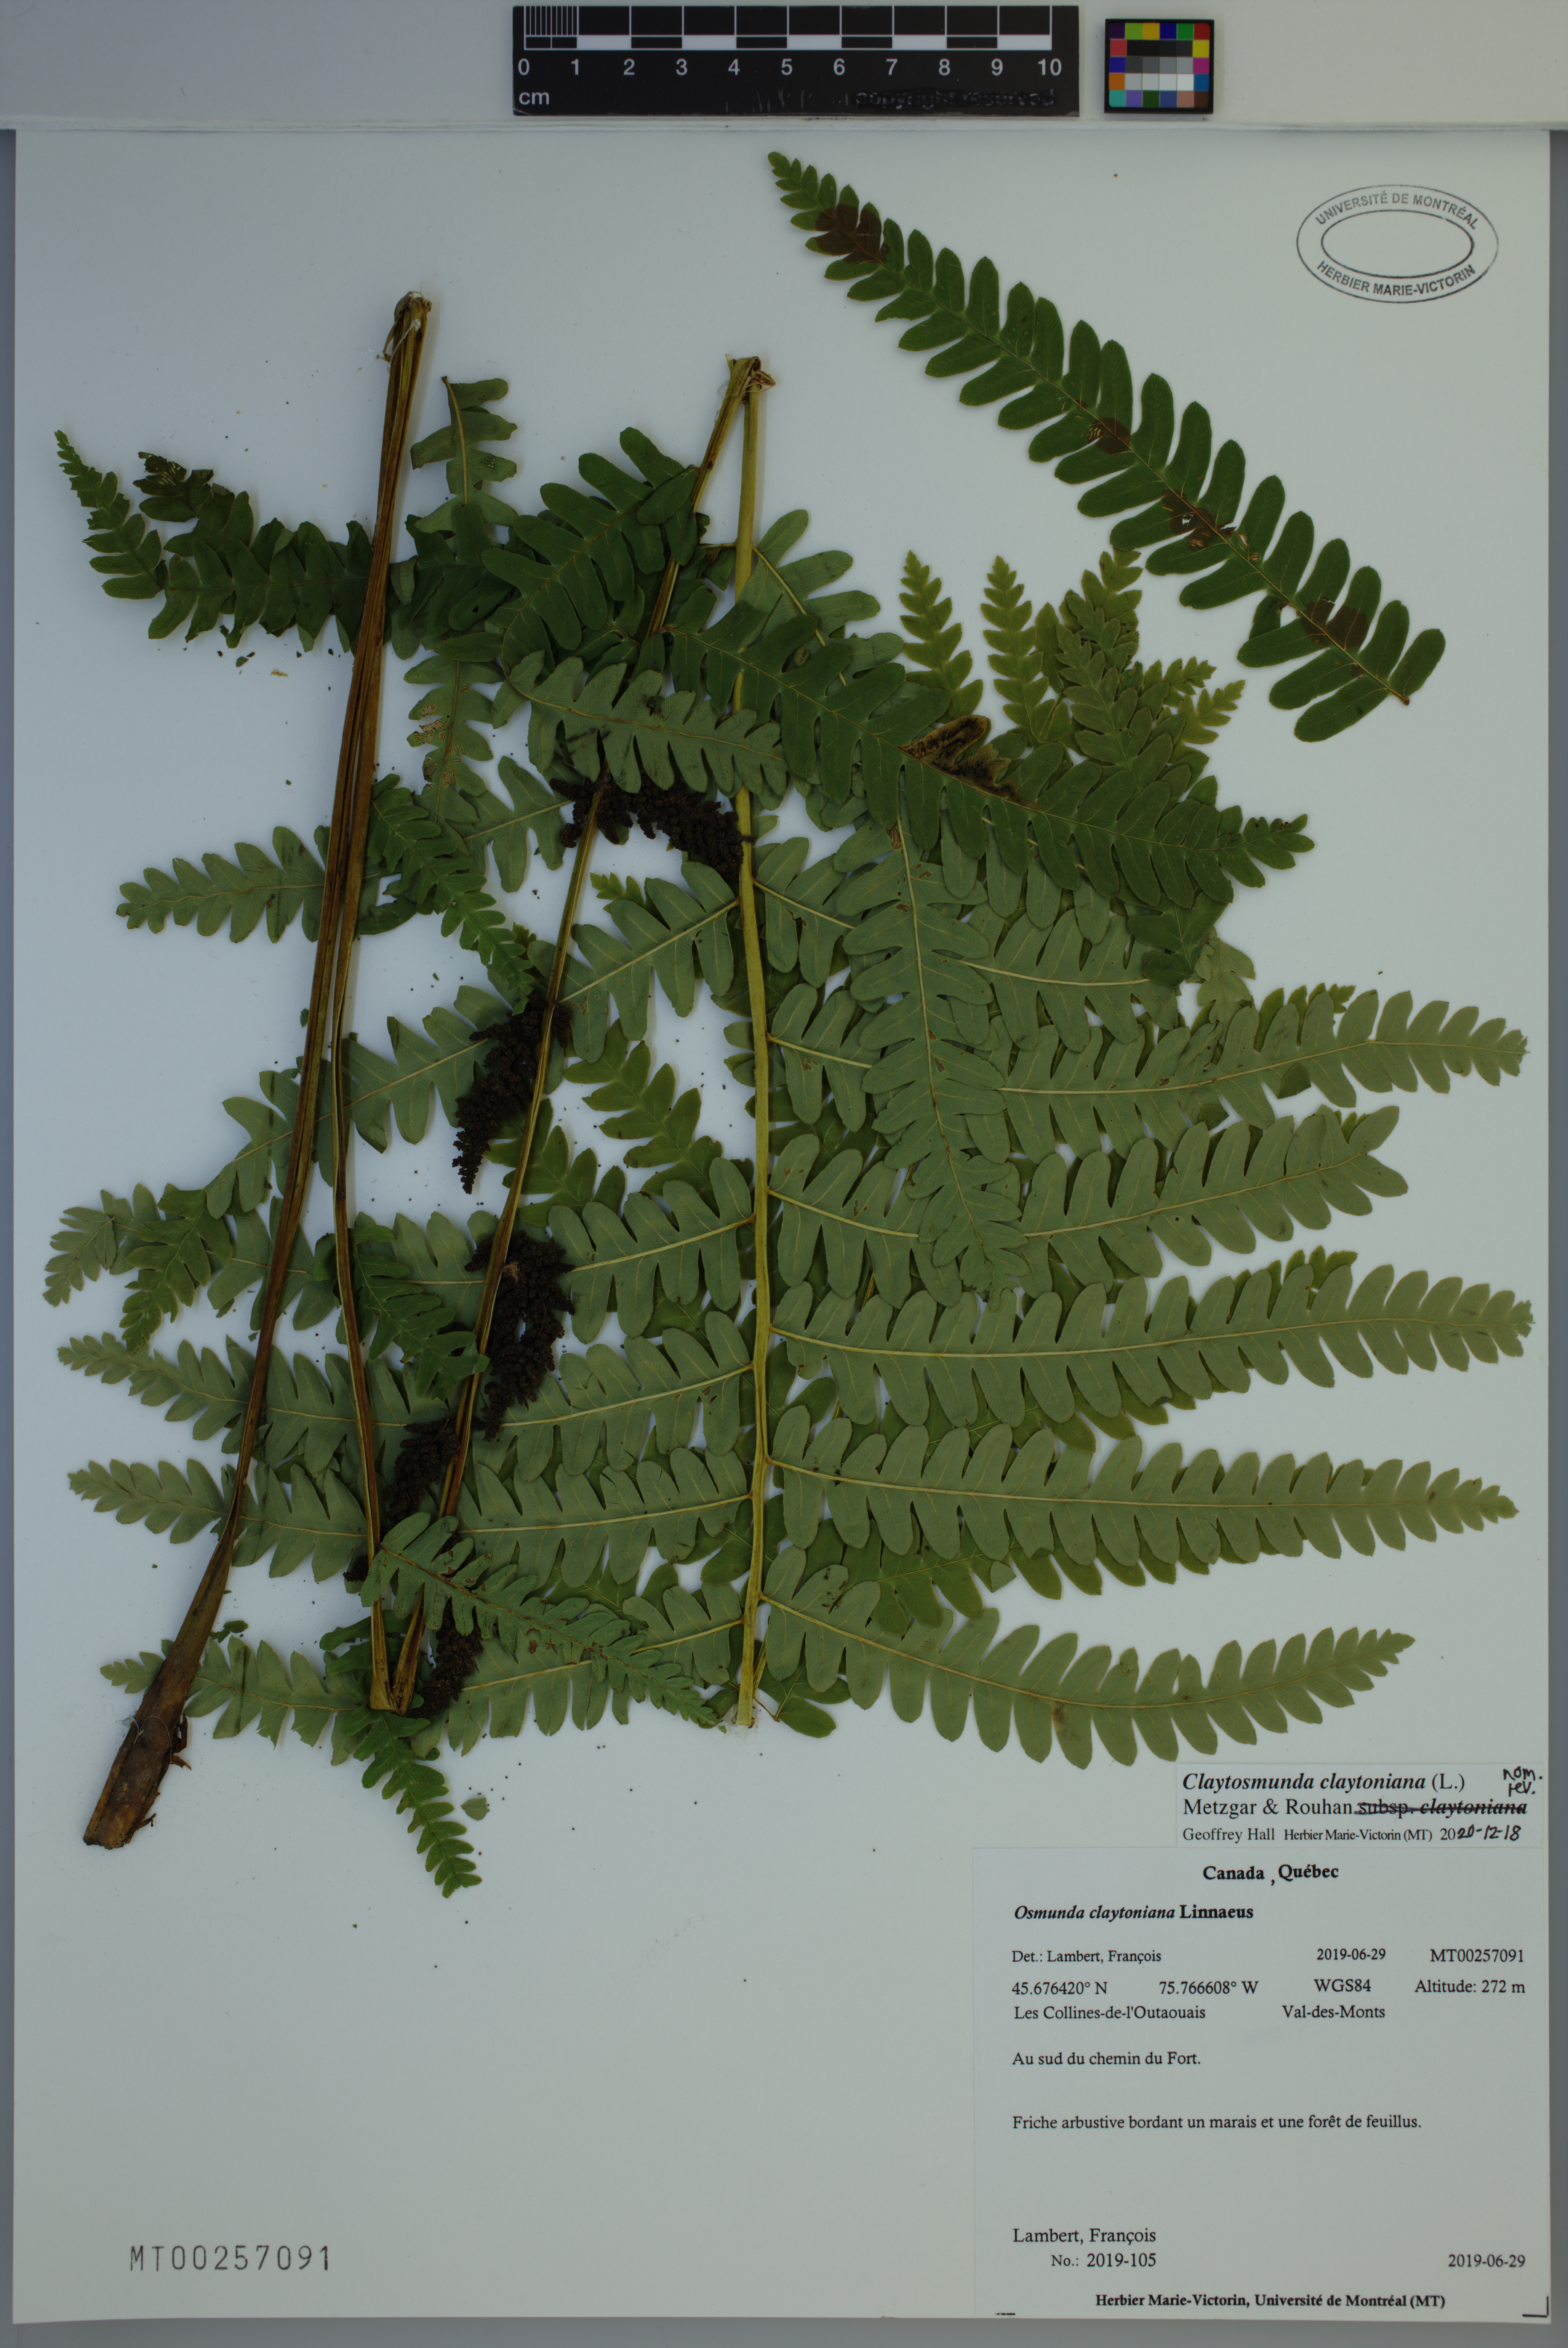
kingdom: Plantae
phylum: Tracheophyta
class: Polypodiopsida
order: Osmundales
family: Osmundaceae
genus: Claytosmunda
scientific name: Claytosmunda claytoniana
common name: Clayton's fern
